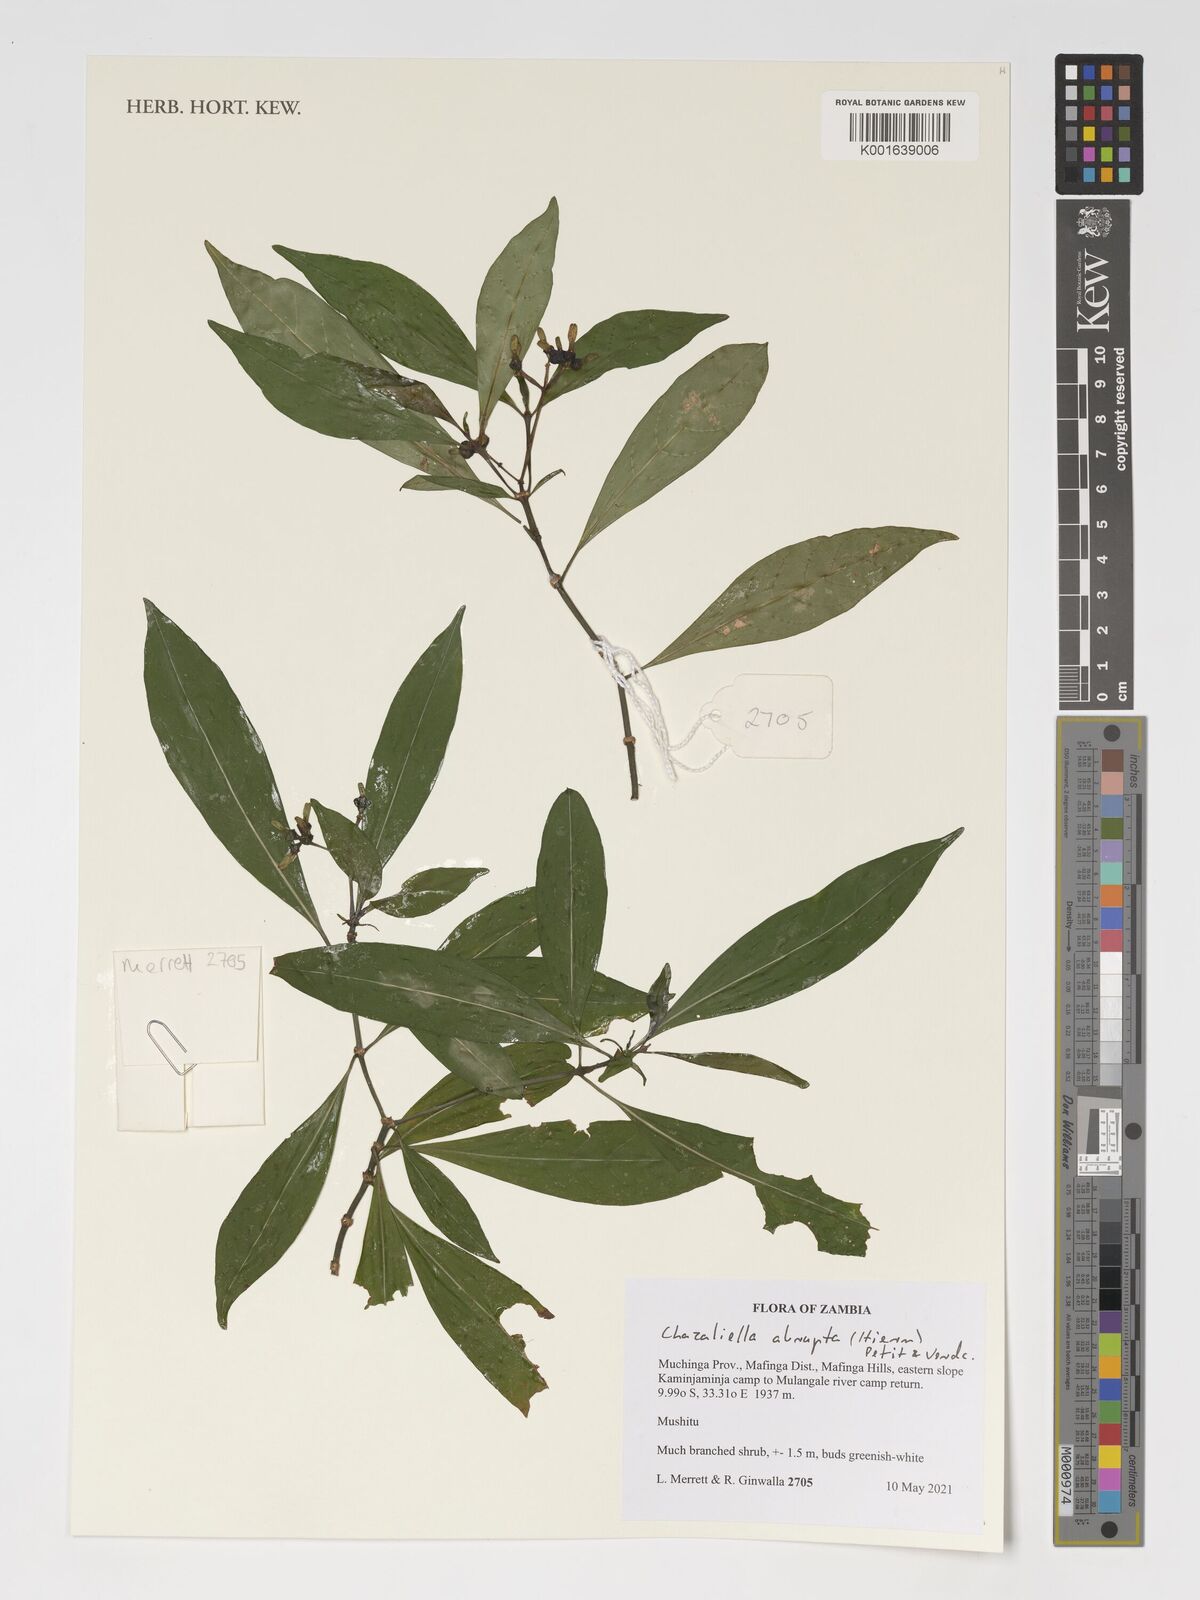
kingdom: Plantae
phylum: Tracheophyta
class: Magnoliopsida
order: Gentianales
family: Rubiaceae
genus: Eumachia
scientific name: Eumachia abrupta
